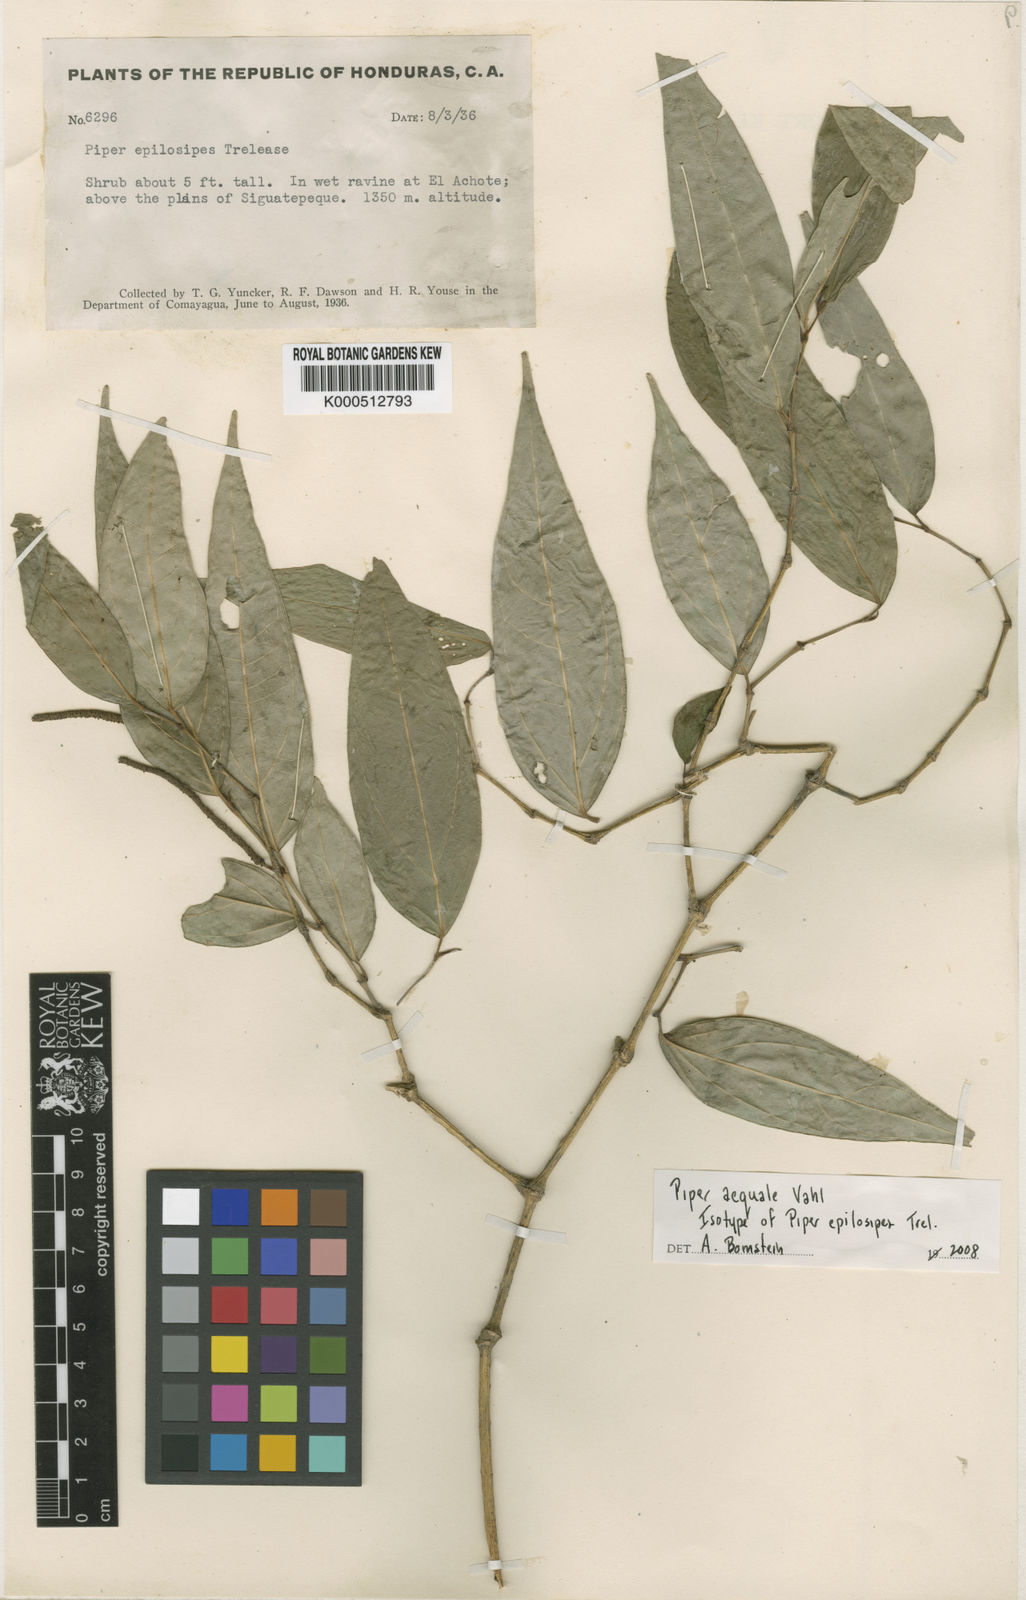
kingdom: Plantae
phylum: Tracheophyta
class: Magnoliopsida
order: Piperales
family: Piperaceae
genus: Piper
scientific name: Piper aequale
